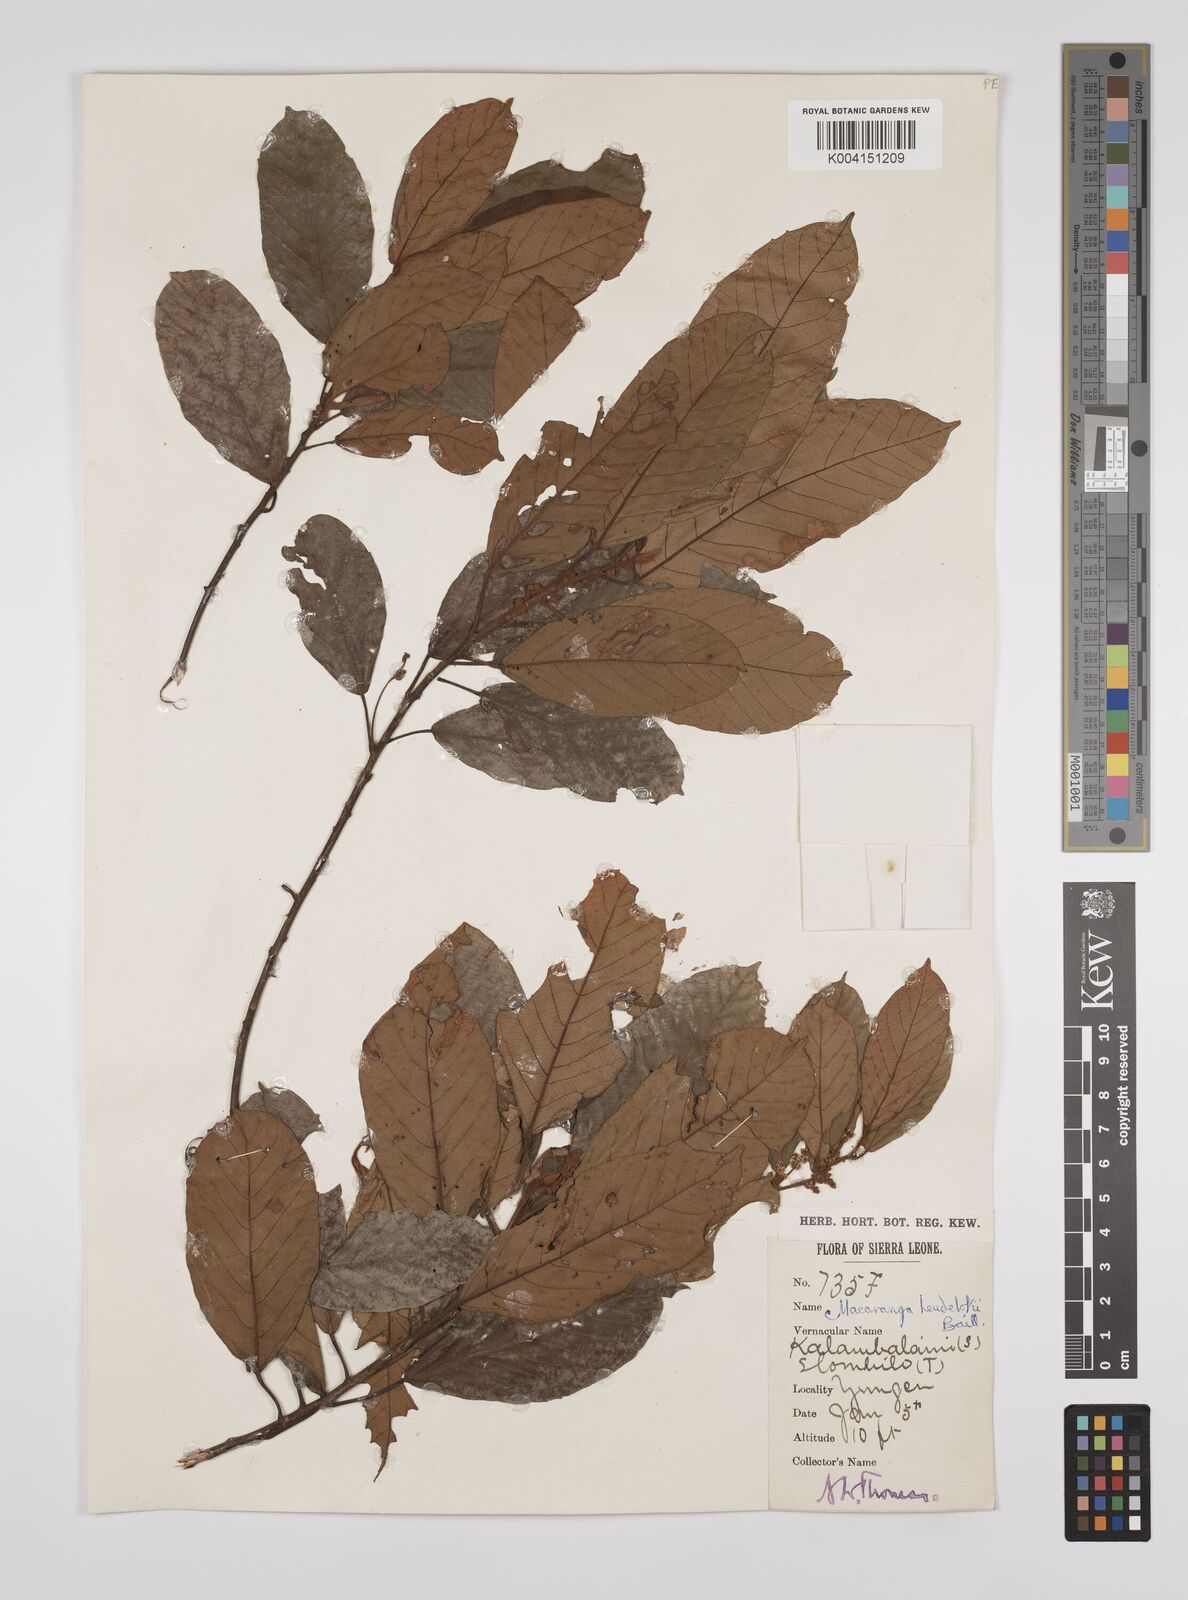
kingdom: Plantae
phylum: Tracheophyta
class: Magnoliopsida
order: Malpighiales
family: Euphorbiaceae
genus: Macaranga
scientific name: Macaranga heudelotii
